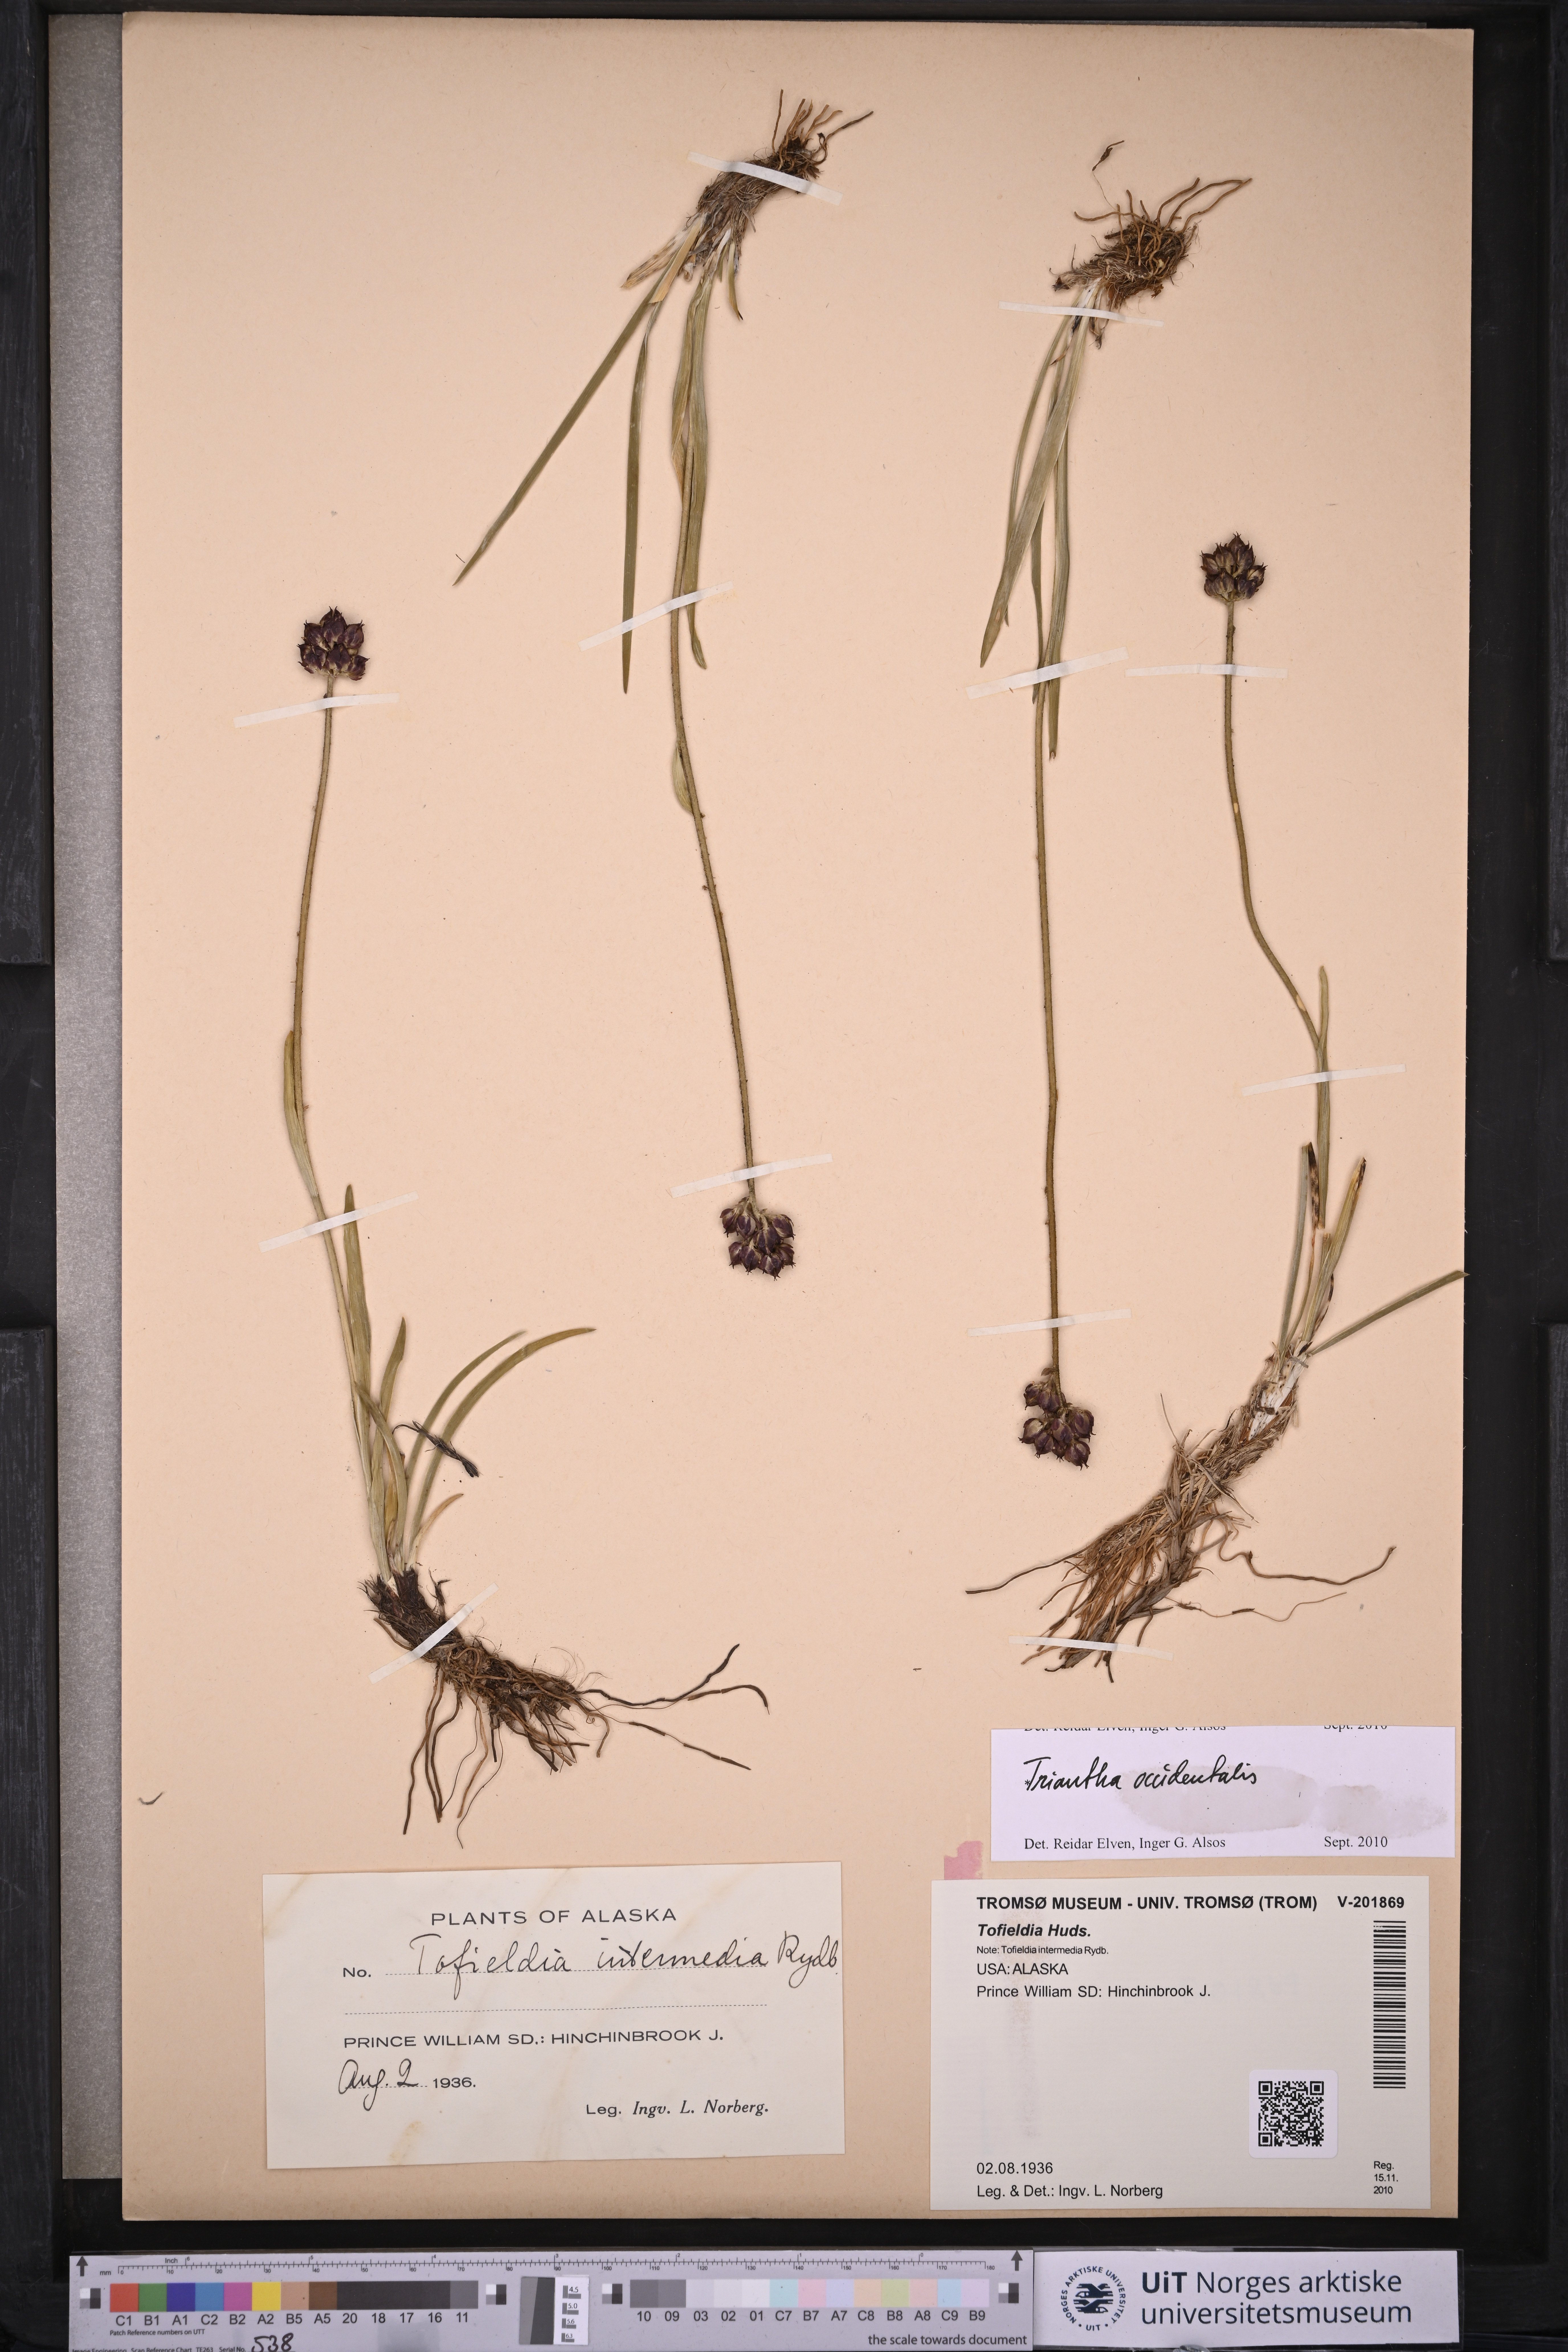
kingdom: Plantae
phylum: Tracheophyta
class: Liliopsida
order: Alismatales
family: Tofieldiaceae
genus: Triantha
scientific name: Triantha occidentalis
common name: Western false asphodel
